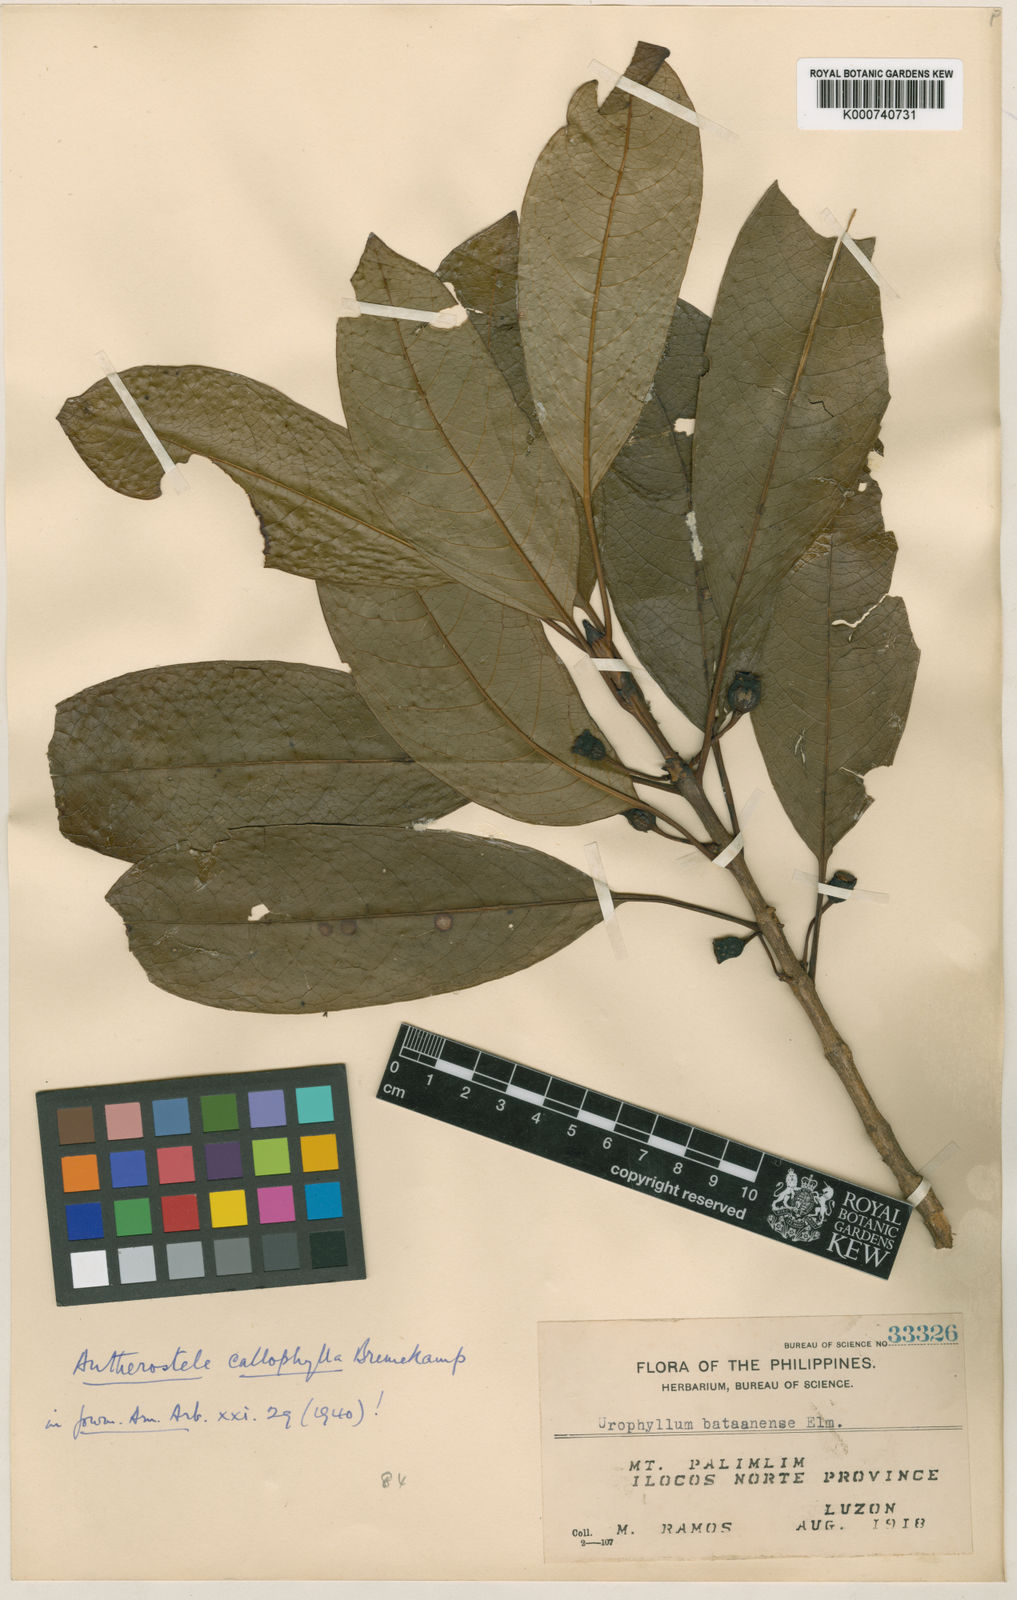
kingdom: Plantae
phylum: Tracheophyta
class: Magnoliopsida
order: Gentianales
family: Rubiaceae
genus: Antherostele
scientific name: Antherostele callophylla
